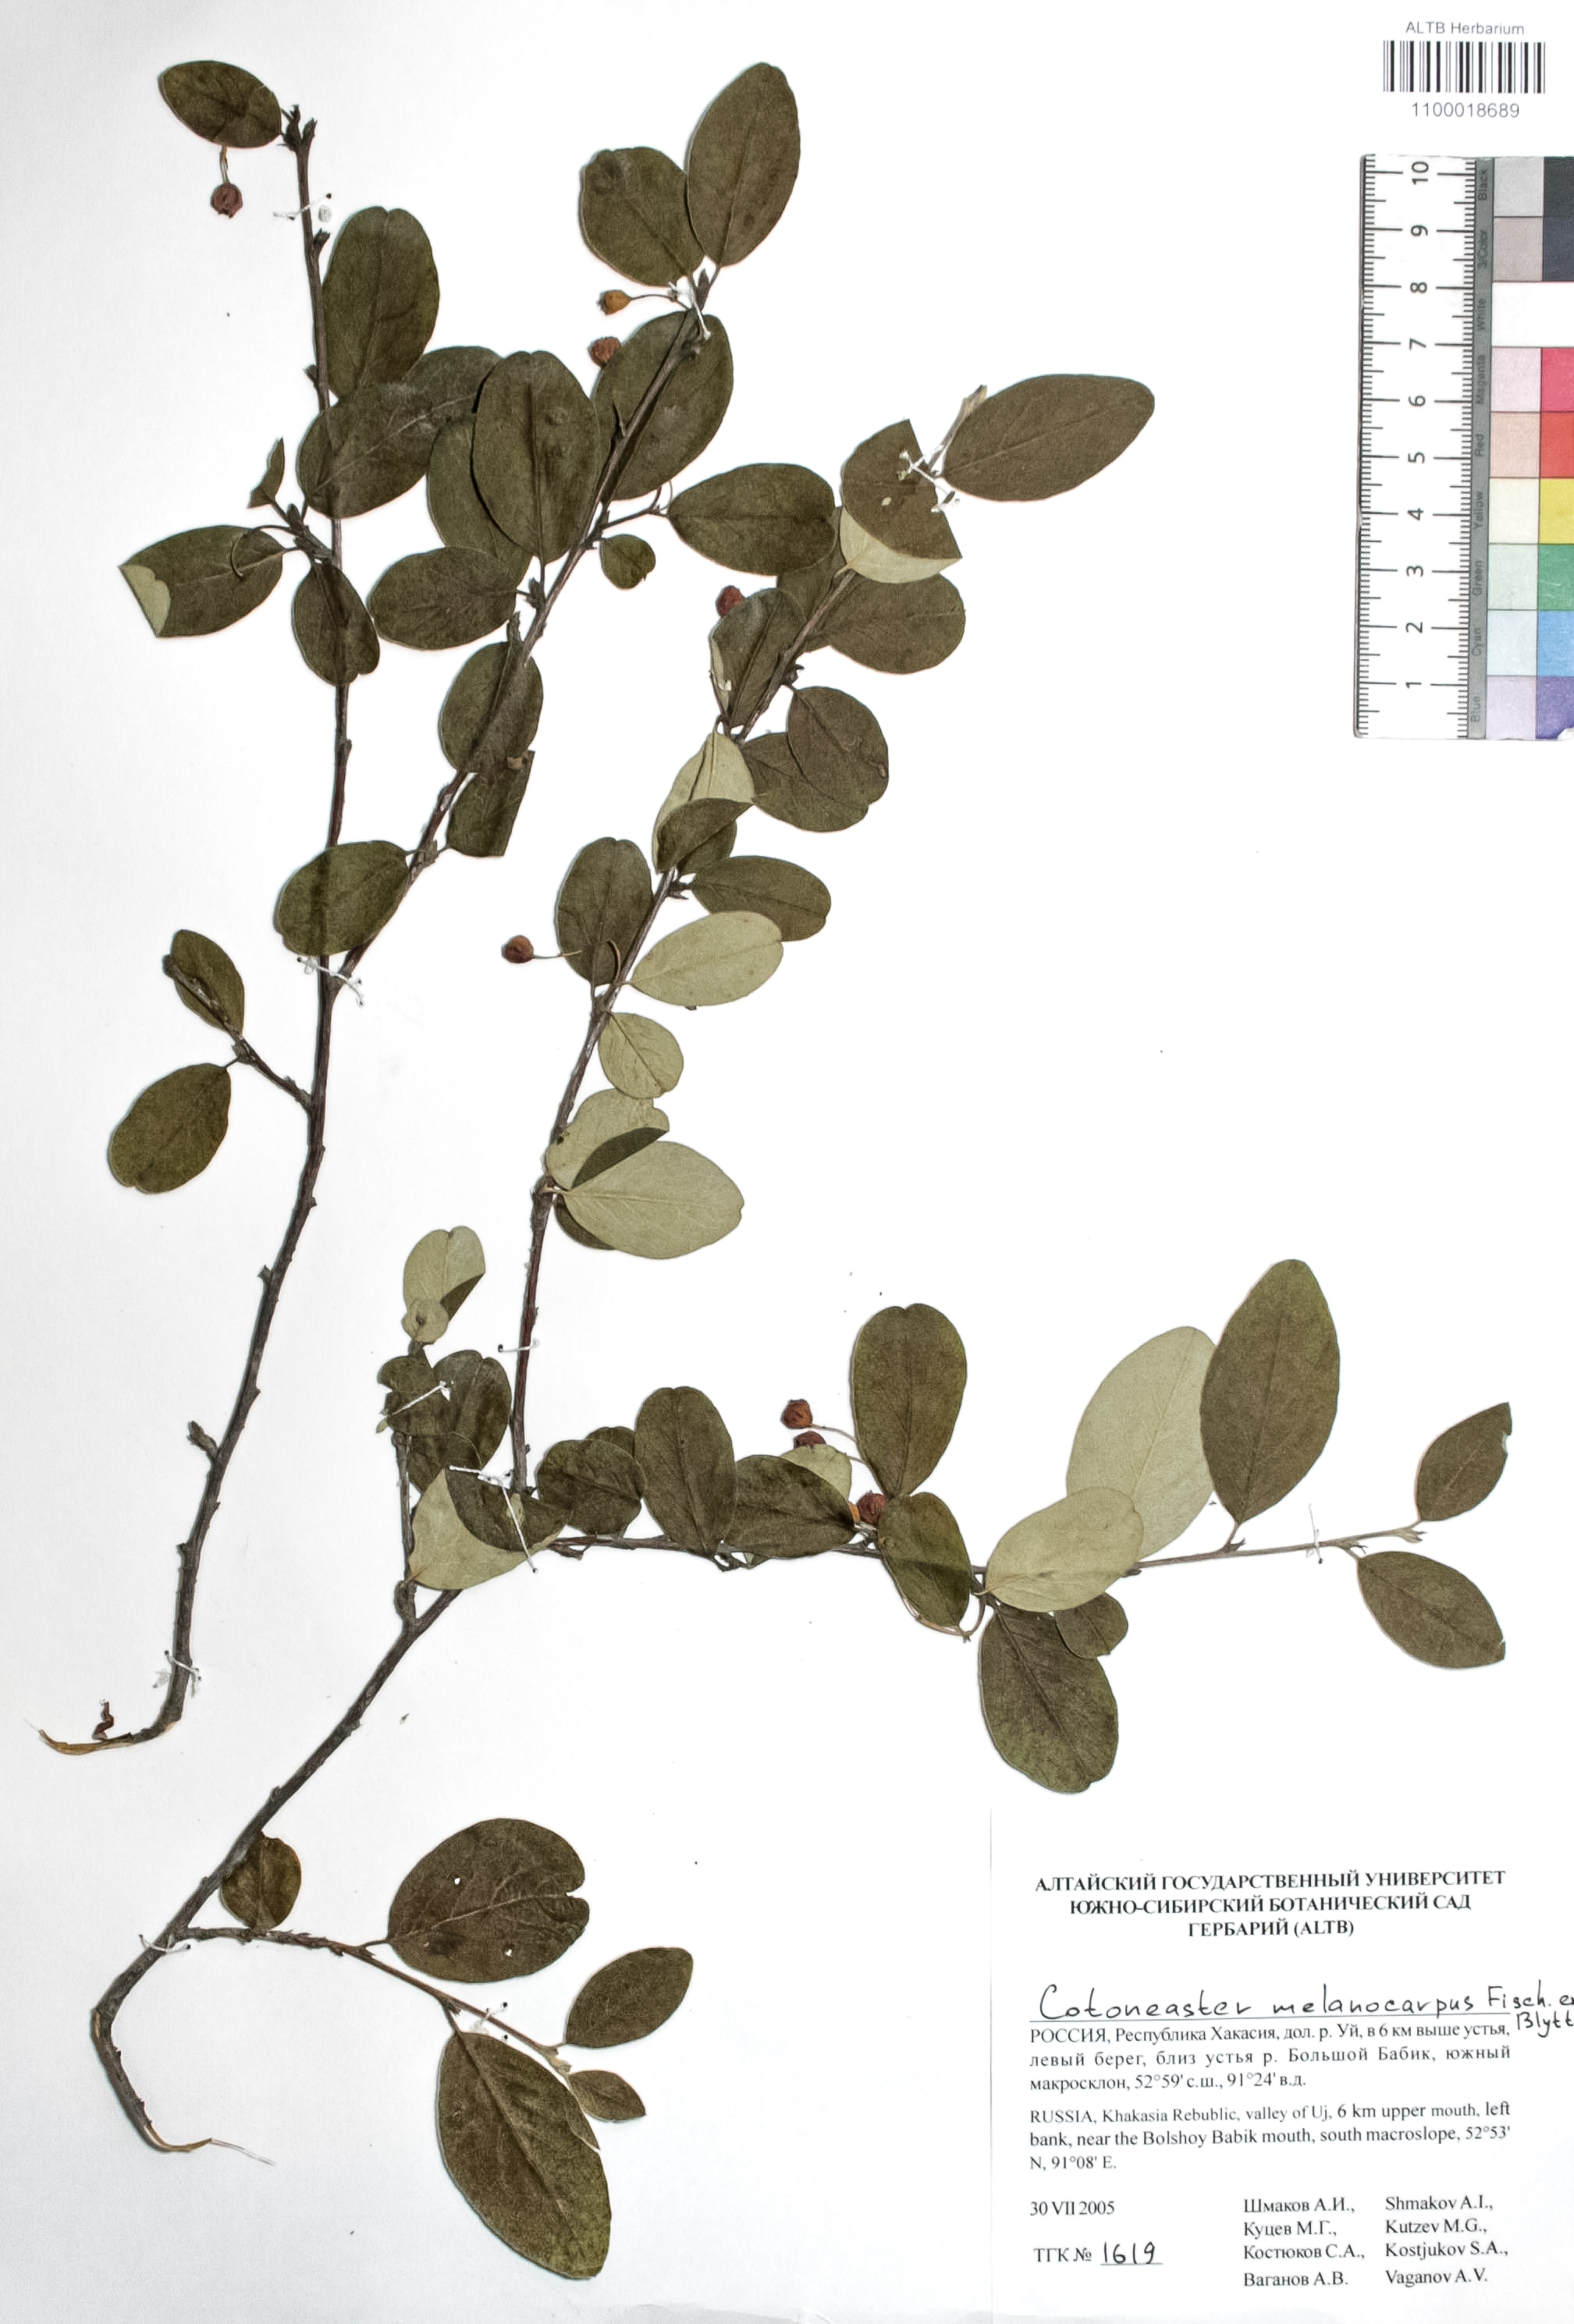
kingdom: Plantae
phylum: Tracheophyta
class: Magnoliopsida
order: Rosales
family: Rosaceae
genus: Cotoneaster
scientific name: Cotoneaster niger
